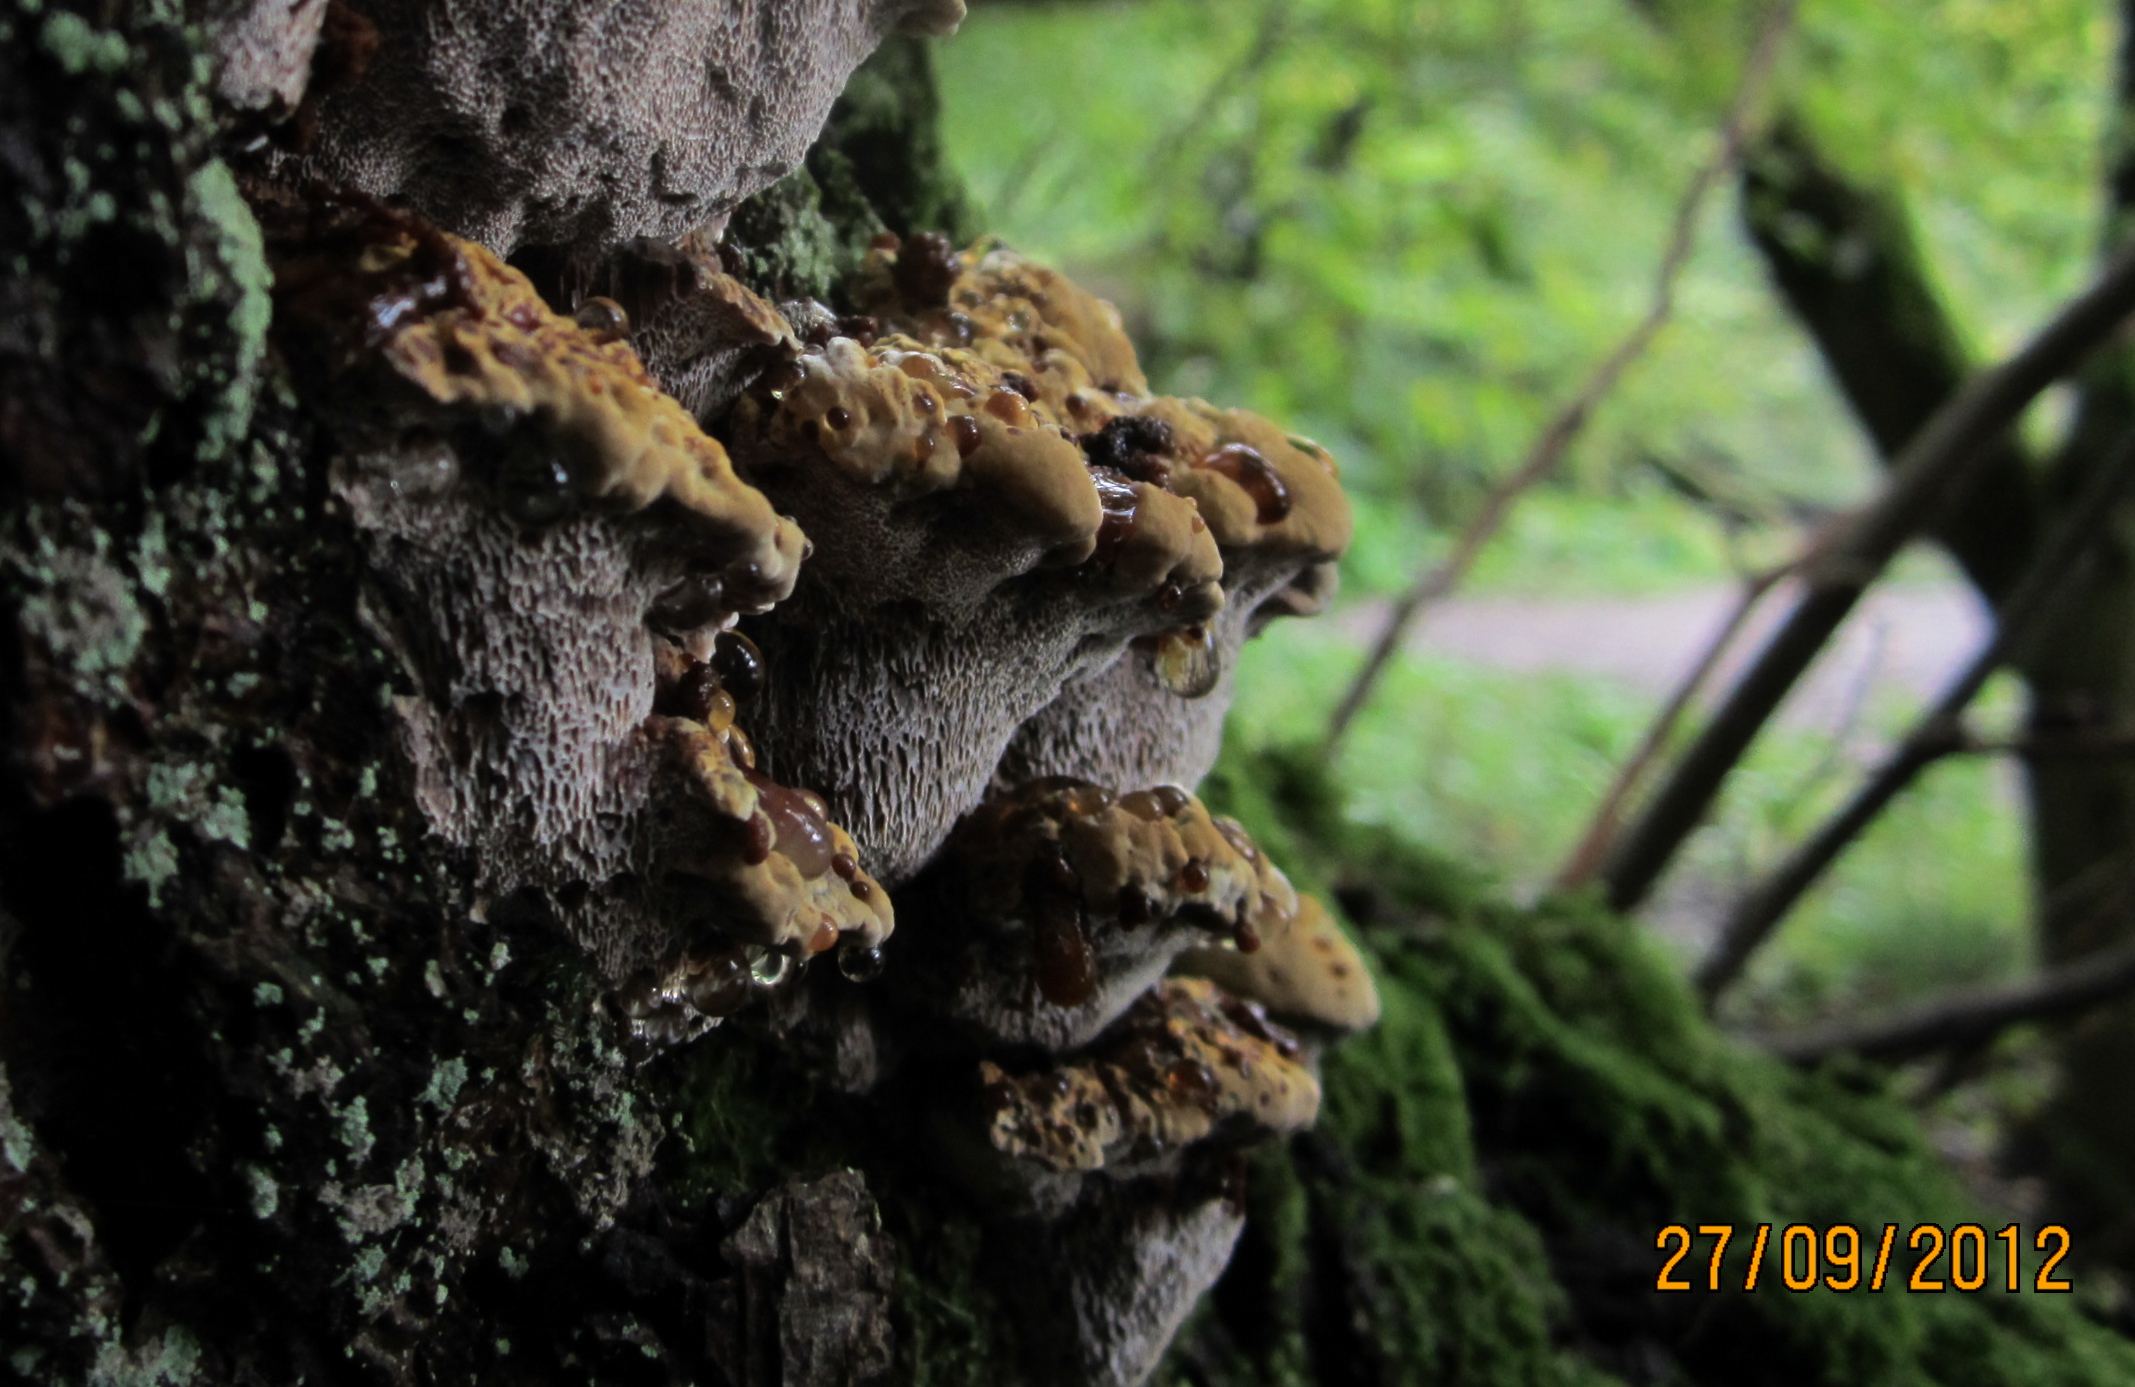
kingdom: Fungi
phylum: Basidiomycota
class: Agaricomycetes
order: Hymenochaetales
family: Hymenochaetaceae
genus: Xanthoporia
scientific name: Xanthoporia radiata
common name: elle-spejlporesvamp
